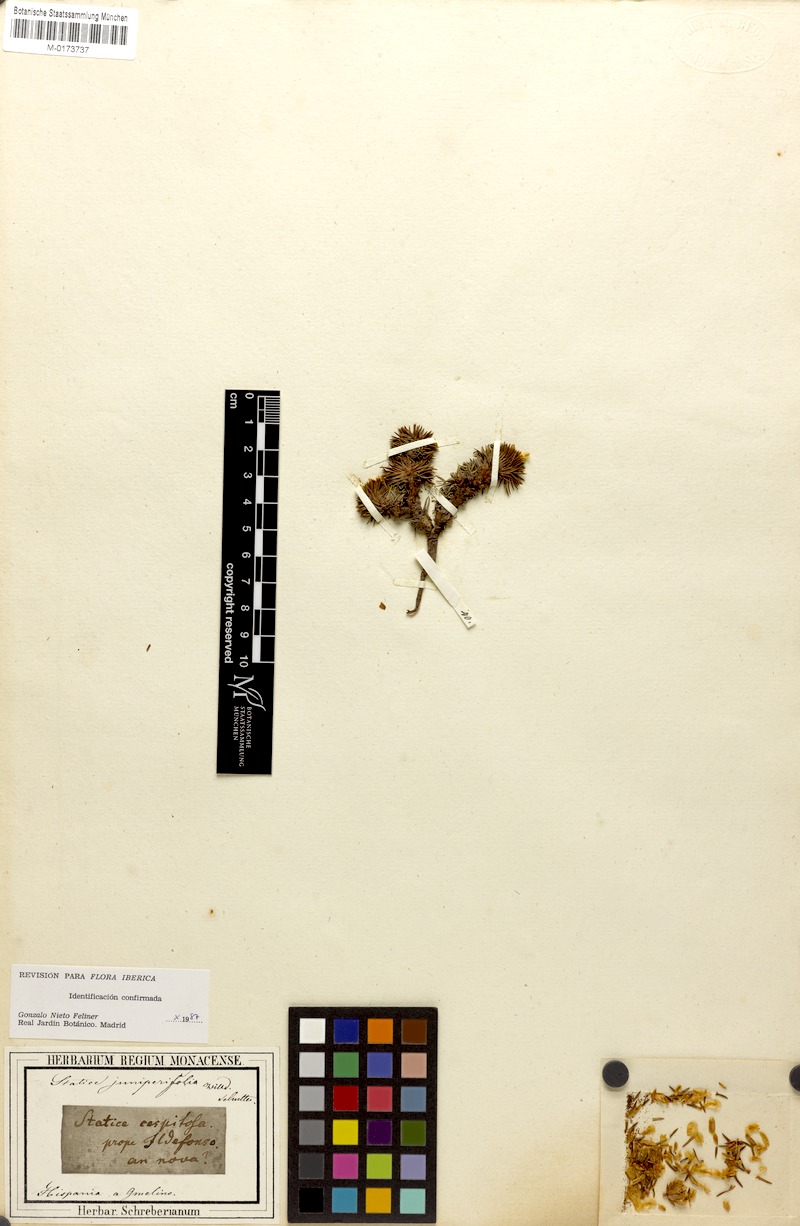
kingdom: Plantae
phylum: Tracheophyta
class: Magnoliopsida
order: Caryophyllales
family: Plumbaginaceae
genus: Armeria
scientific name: Armeria caespitosa
